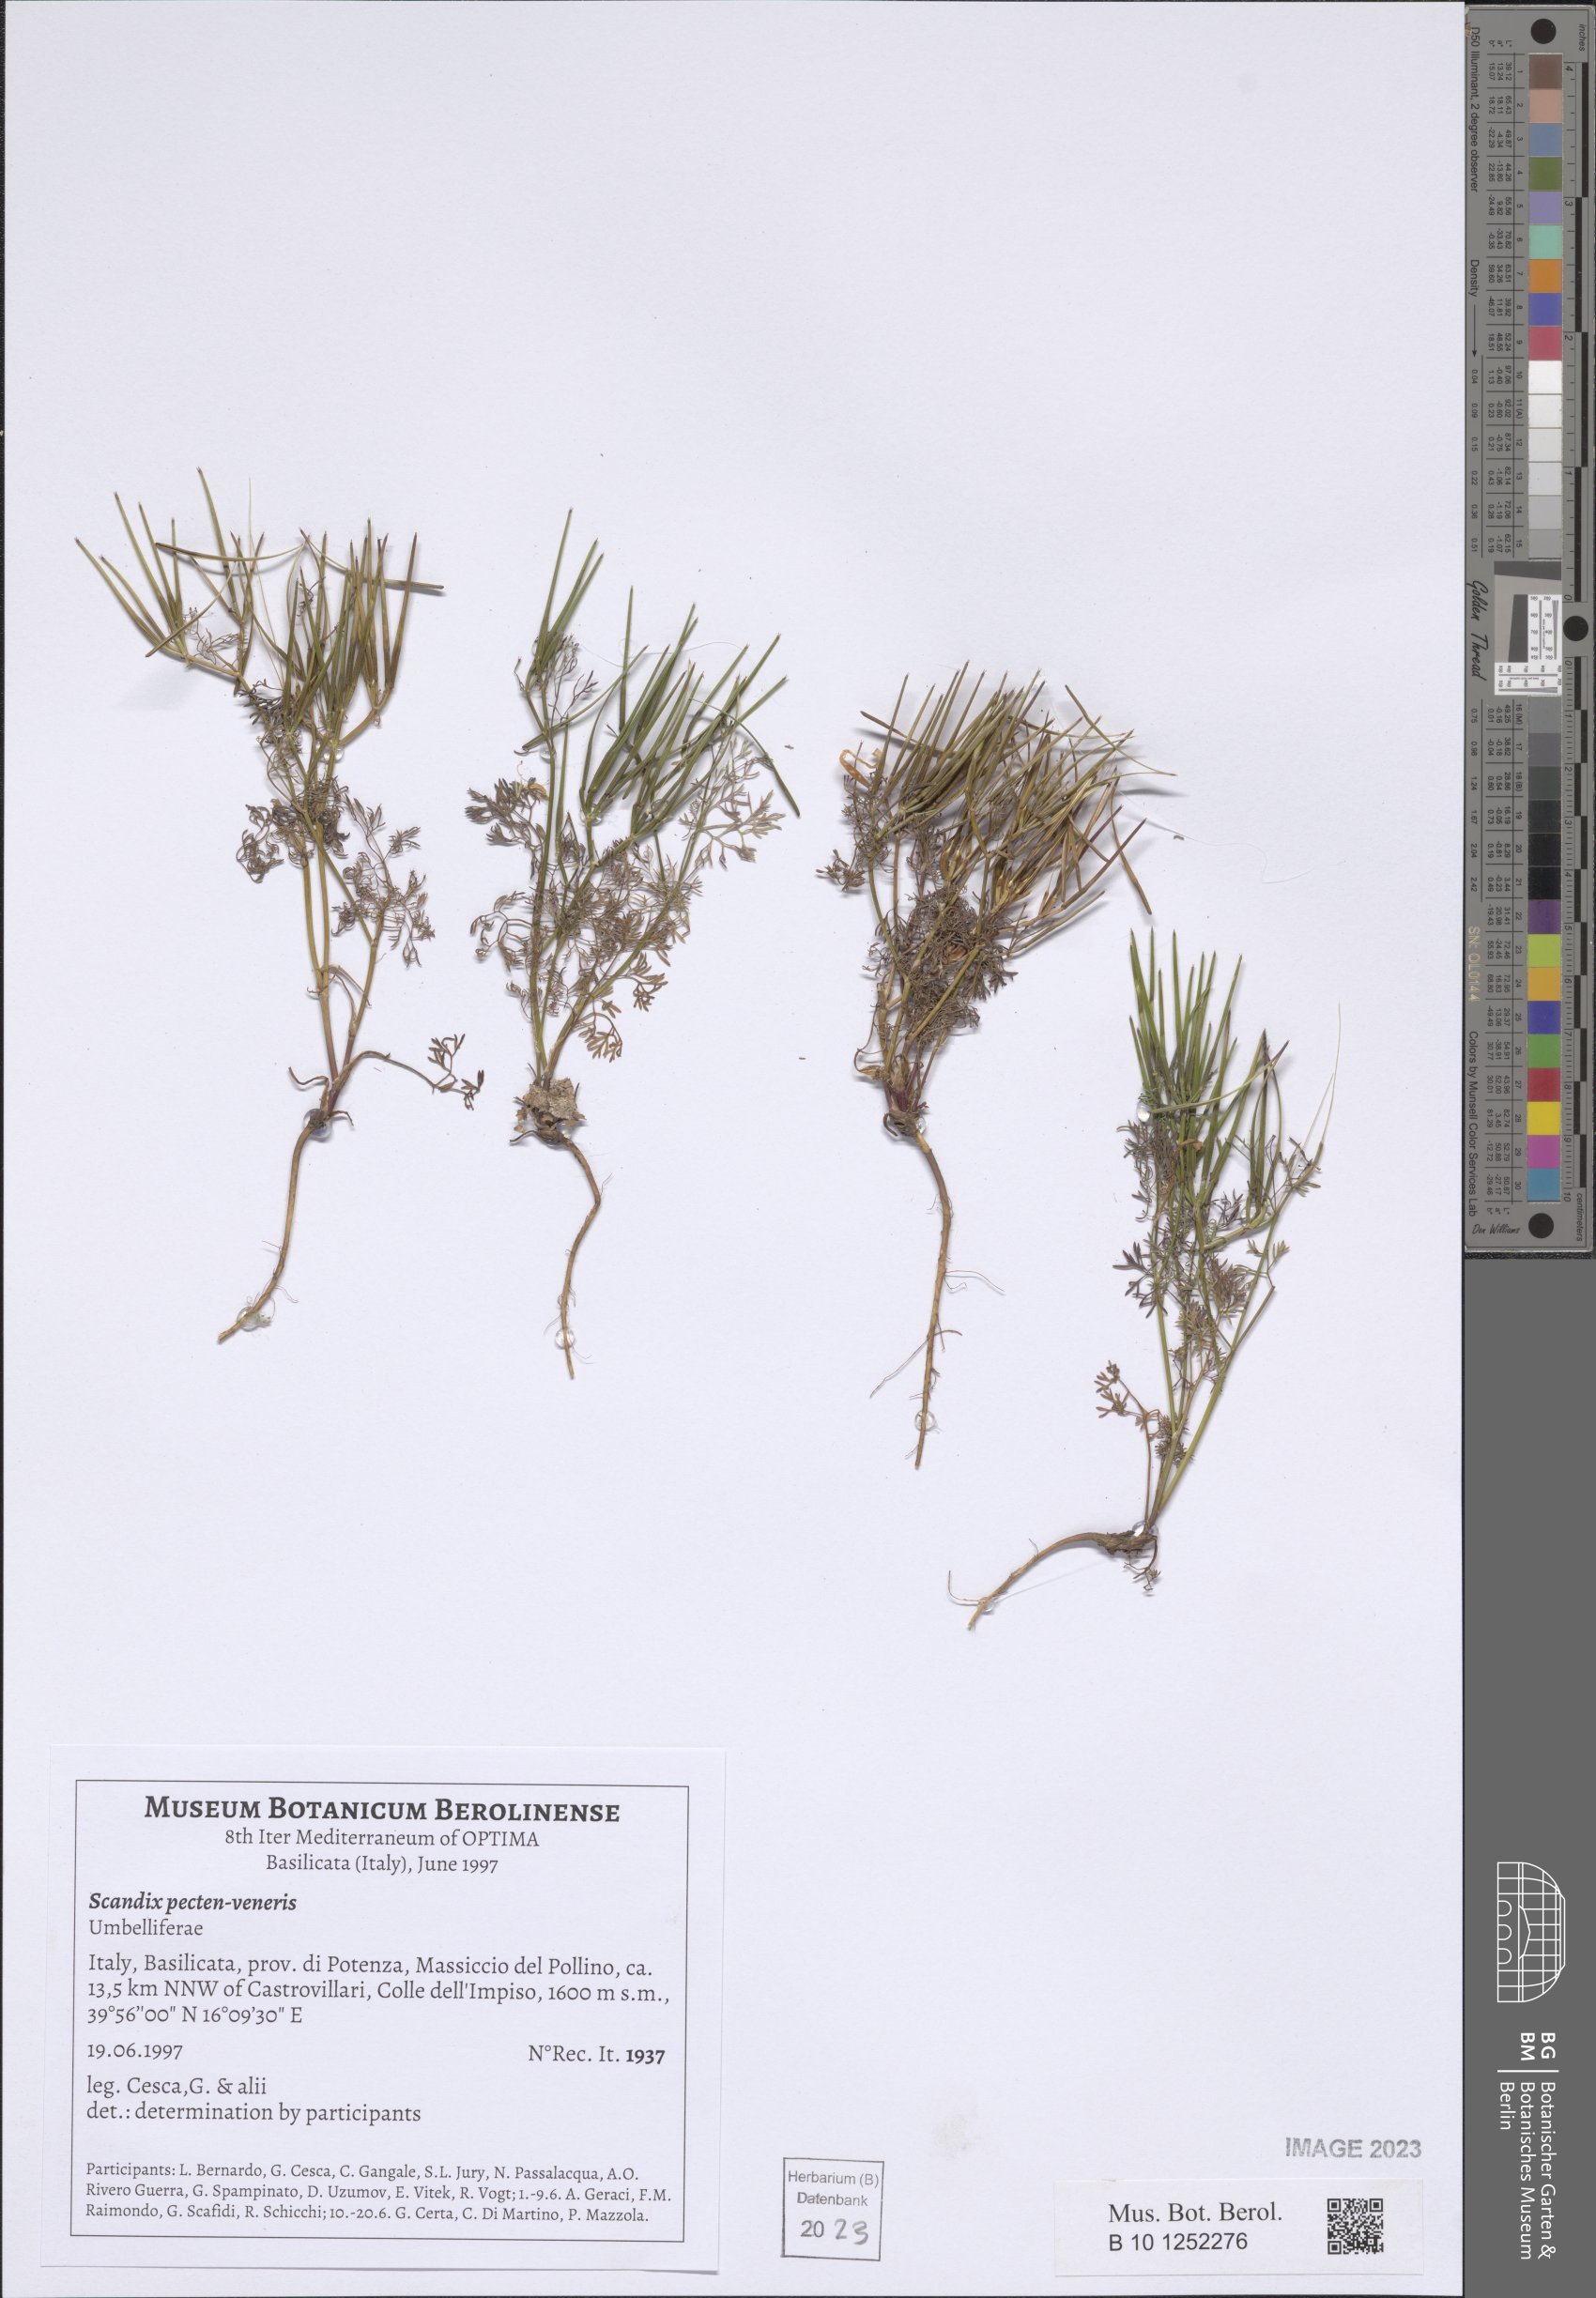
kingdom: Plantae
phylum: Tracheophyta
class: Magnoliopsida
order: Apiales
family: Apiaceae
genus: Scandix
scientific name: Scandix pecten-veneris
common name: Shepherd's-needle
